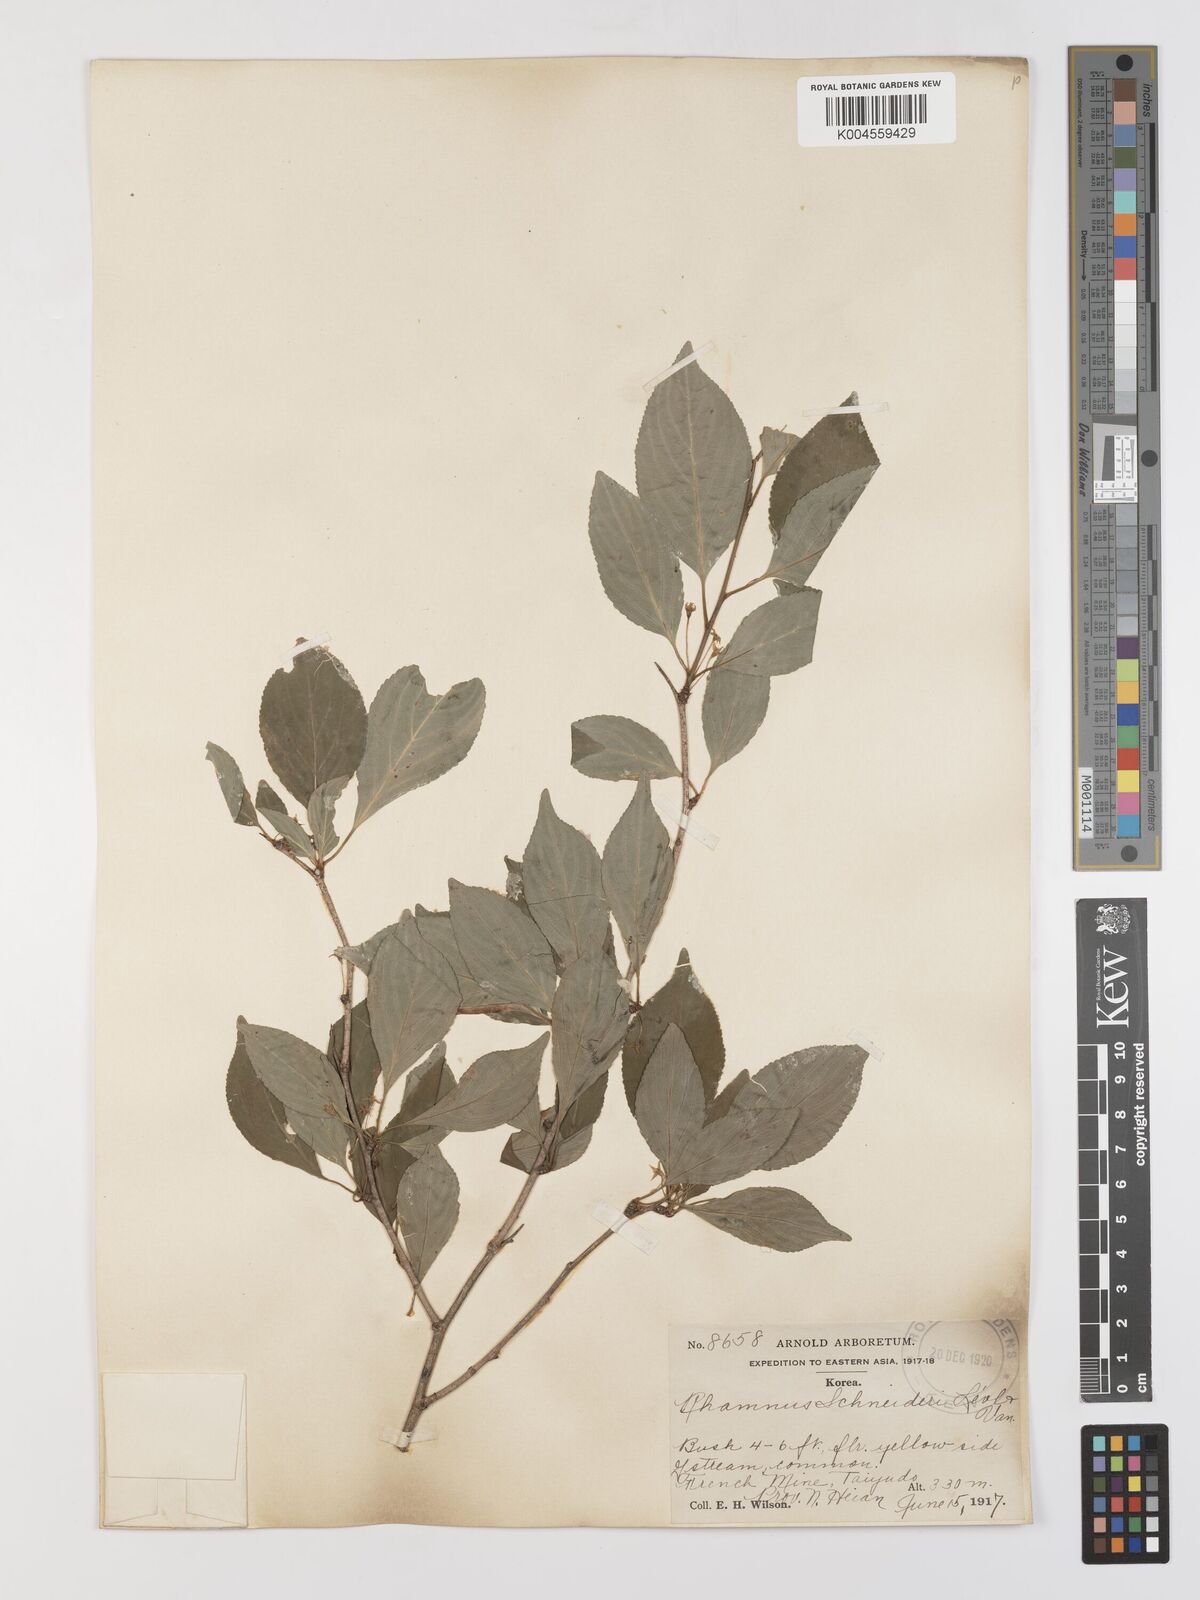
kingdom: Plantae
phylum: Tracheophyta
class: Magnoliopsida
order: Rosales
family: Rhamnaceae
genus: Rhamnus
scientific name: Rhamnus schneideri
